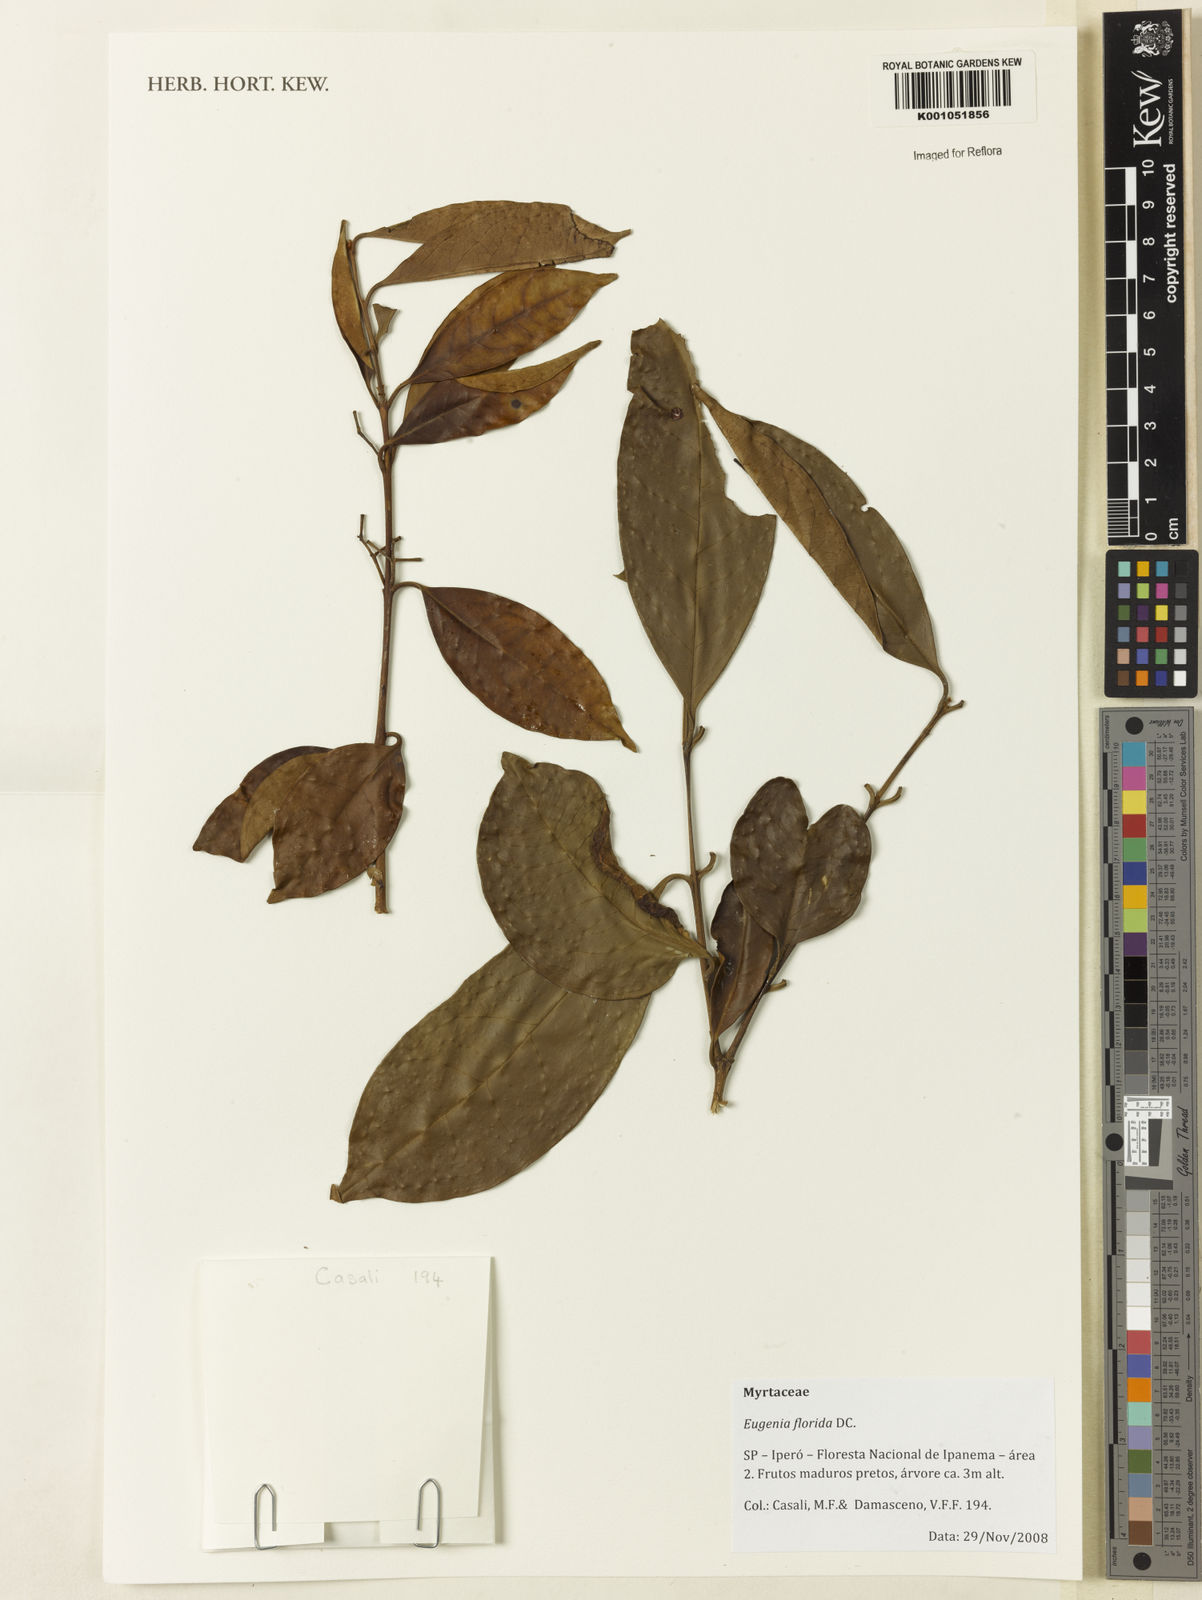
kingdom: Plantae
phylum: Tracheophyta
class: Magnoliopsida
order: Myrtales
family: Myrtaceae
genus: Eugenia
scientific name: Eugenia florida
